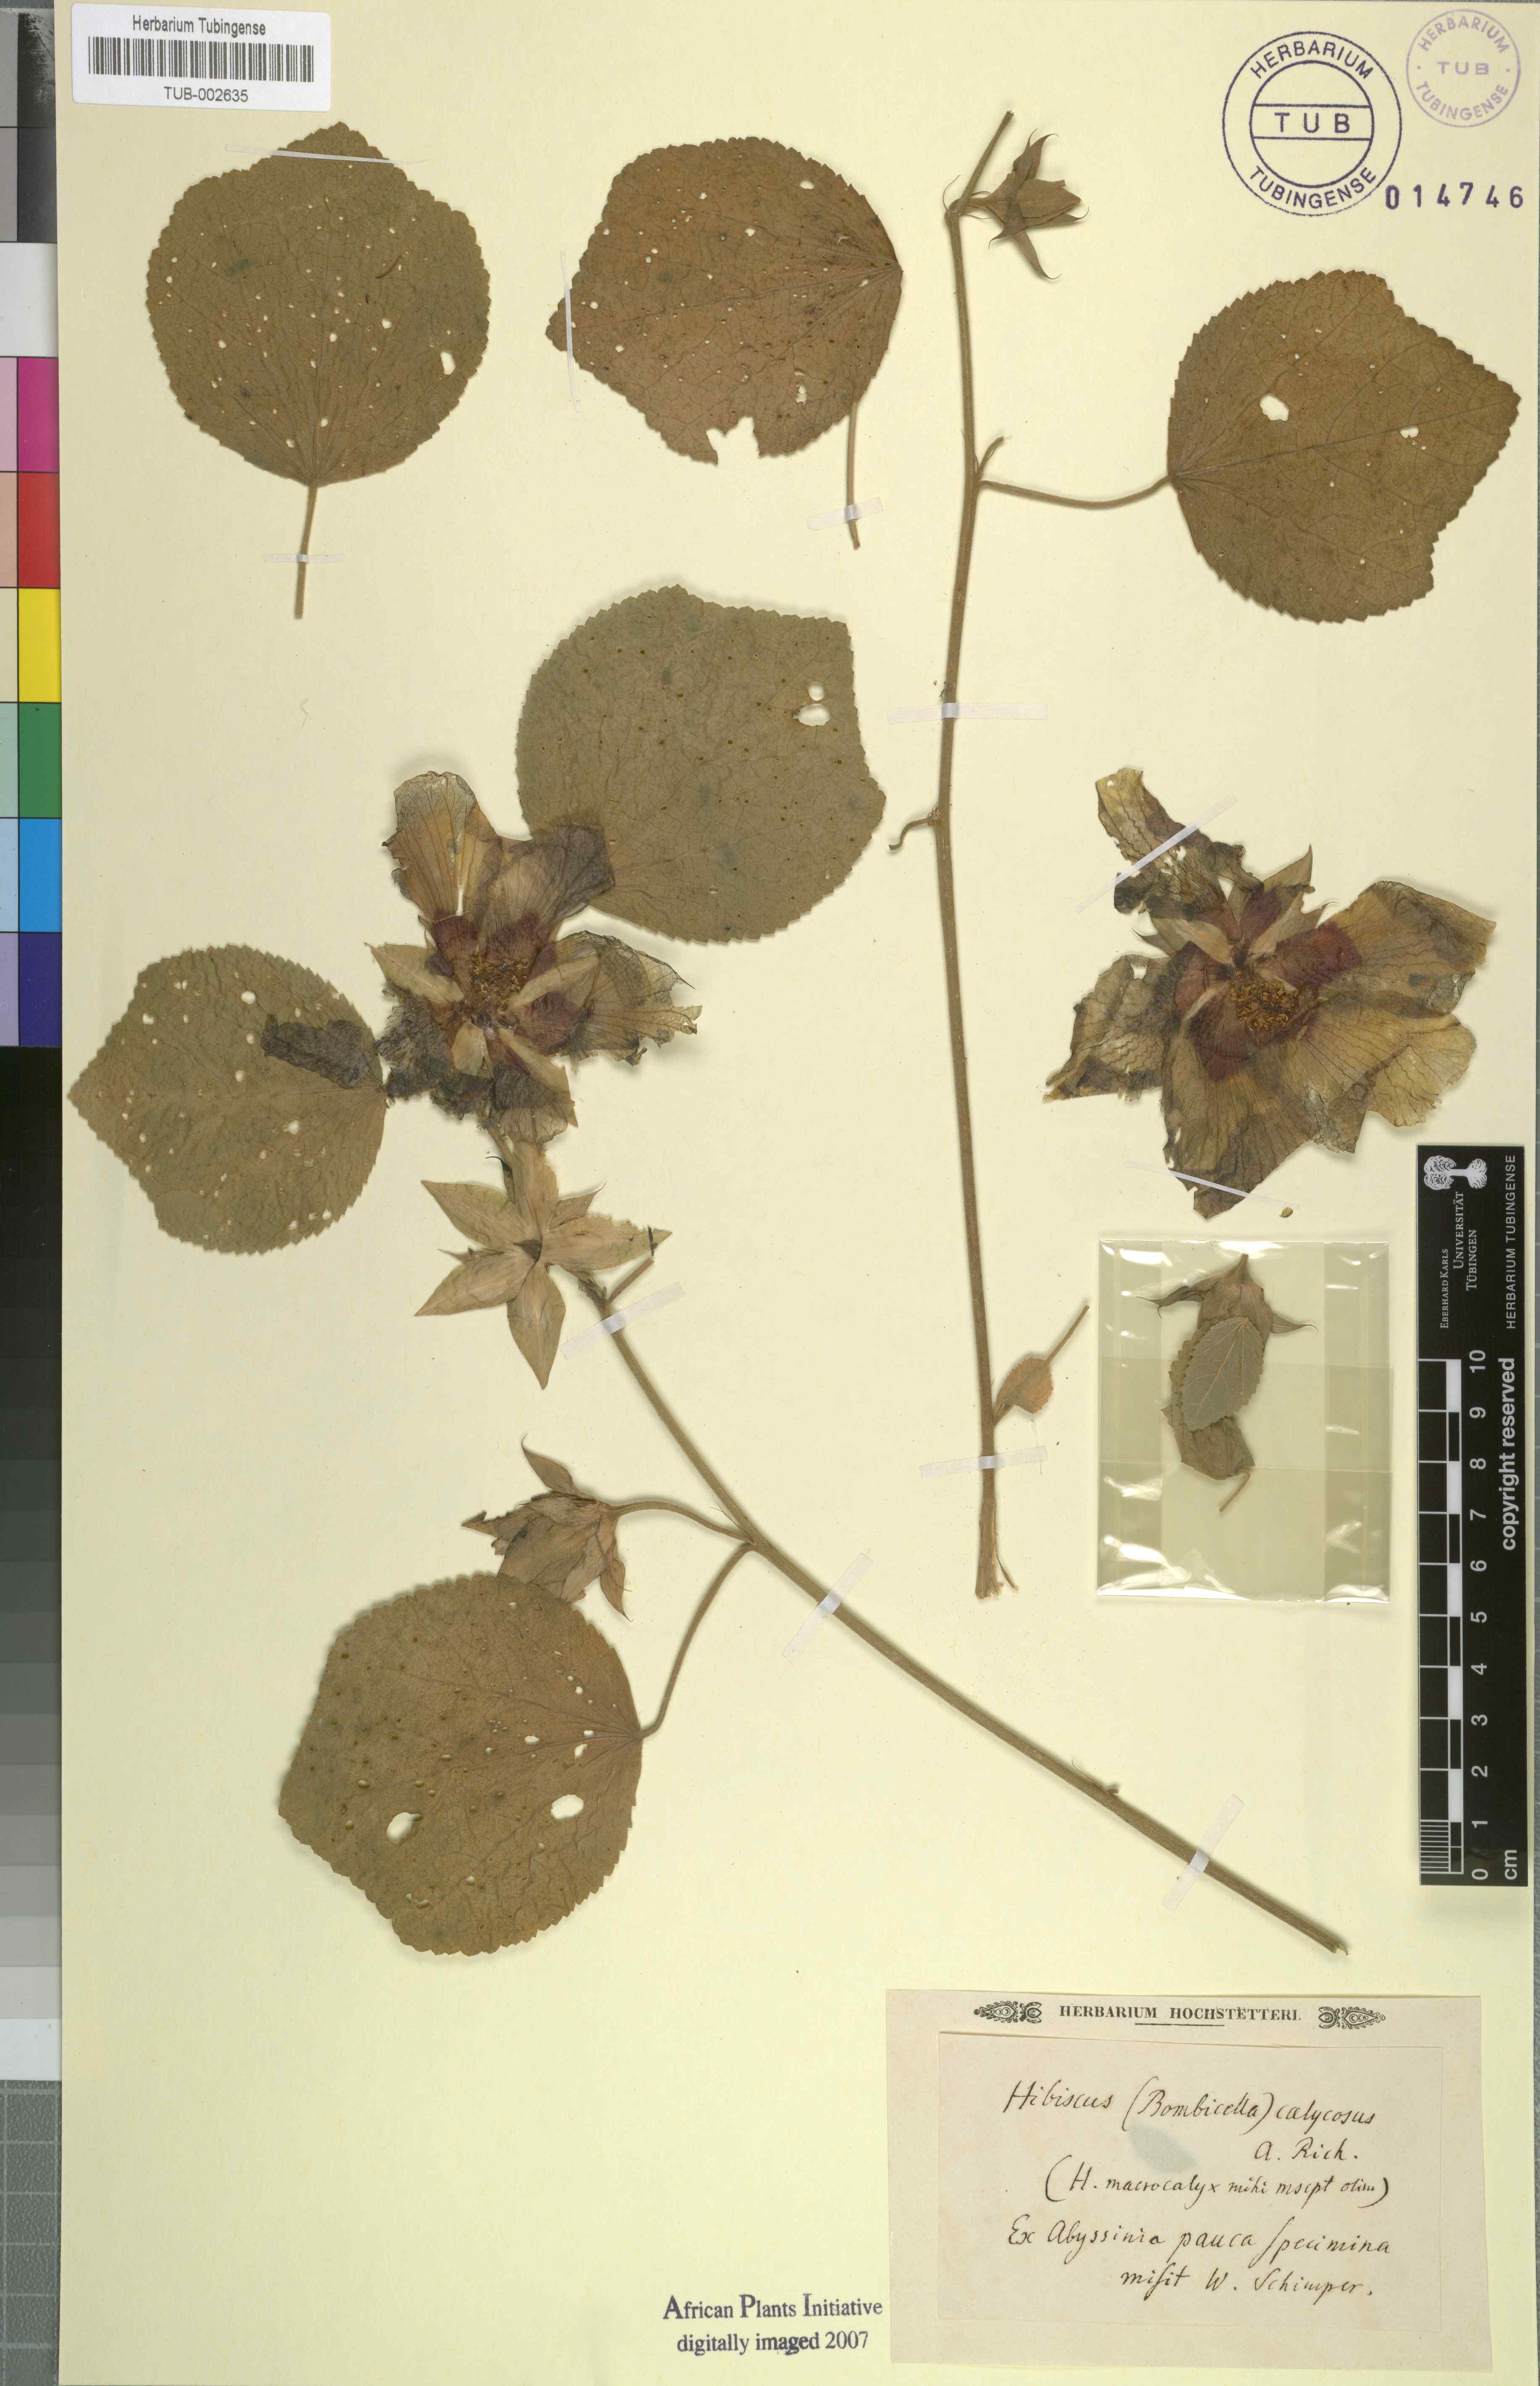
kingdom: Plantae
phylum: Tracheophyta
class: Magnoliopsida
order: Malvales
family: Malvaceae
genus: Hibiscus
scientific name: Hibiscus calyphyllus
